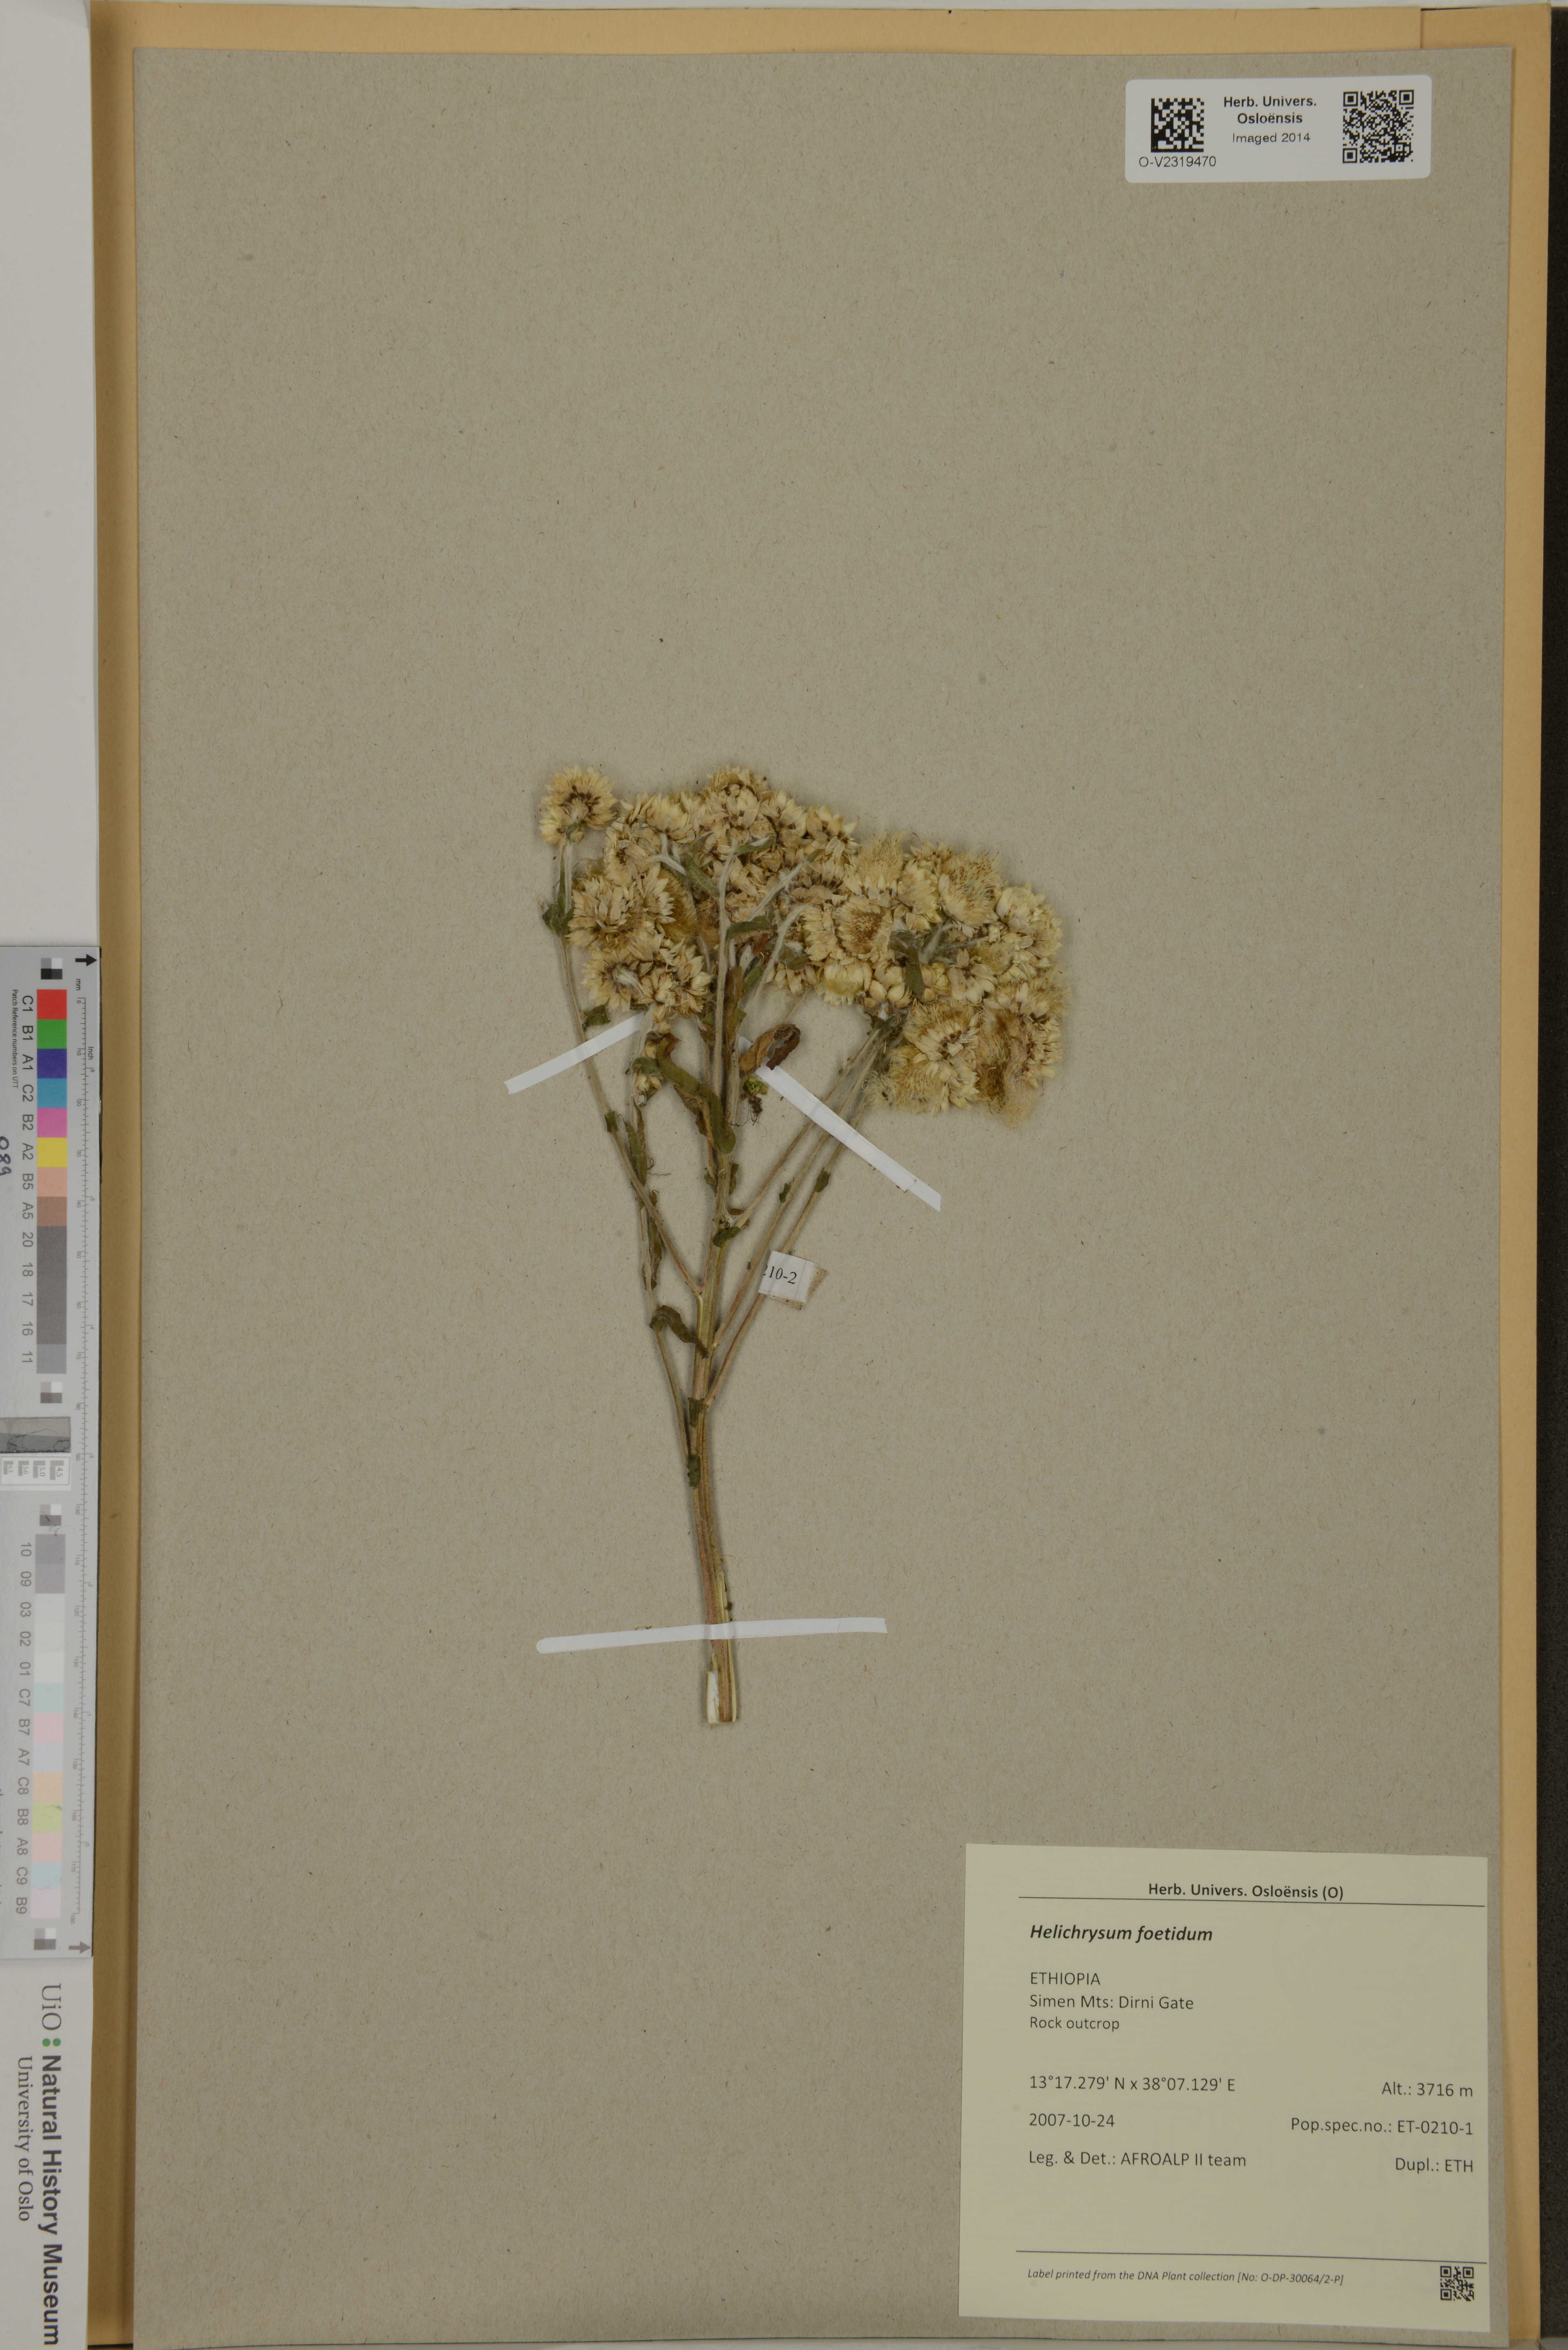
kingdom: Plantae
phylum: Tracheophyta
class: Magnoliopsida
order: Asterales
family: Asteraceae
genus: Helichrysum
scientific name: Helichrysum foetidum
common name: Stinking everlasting
